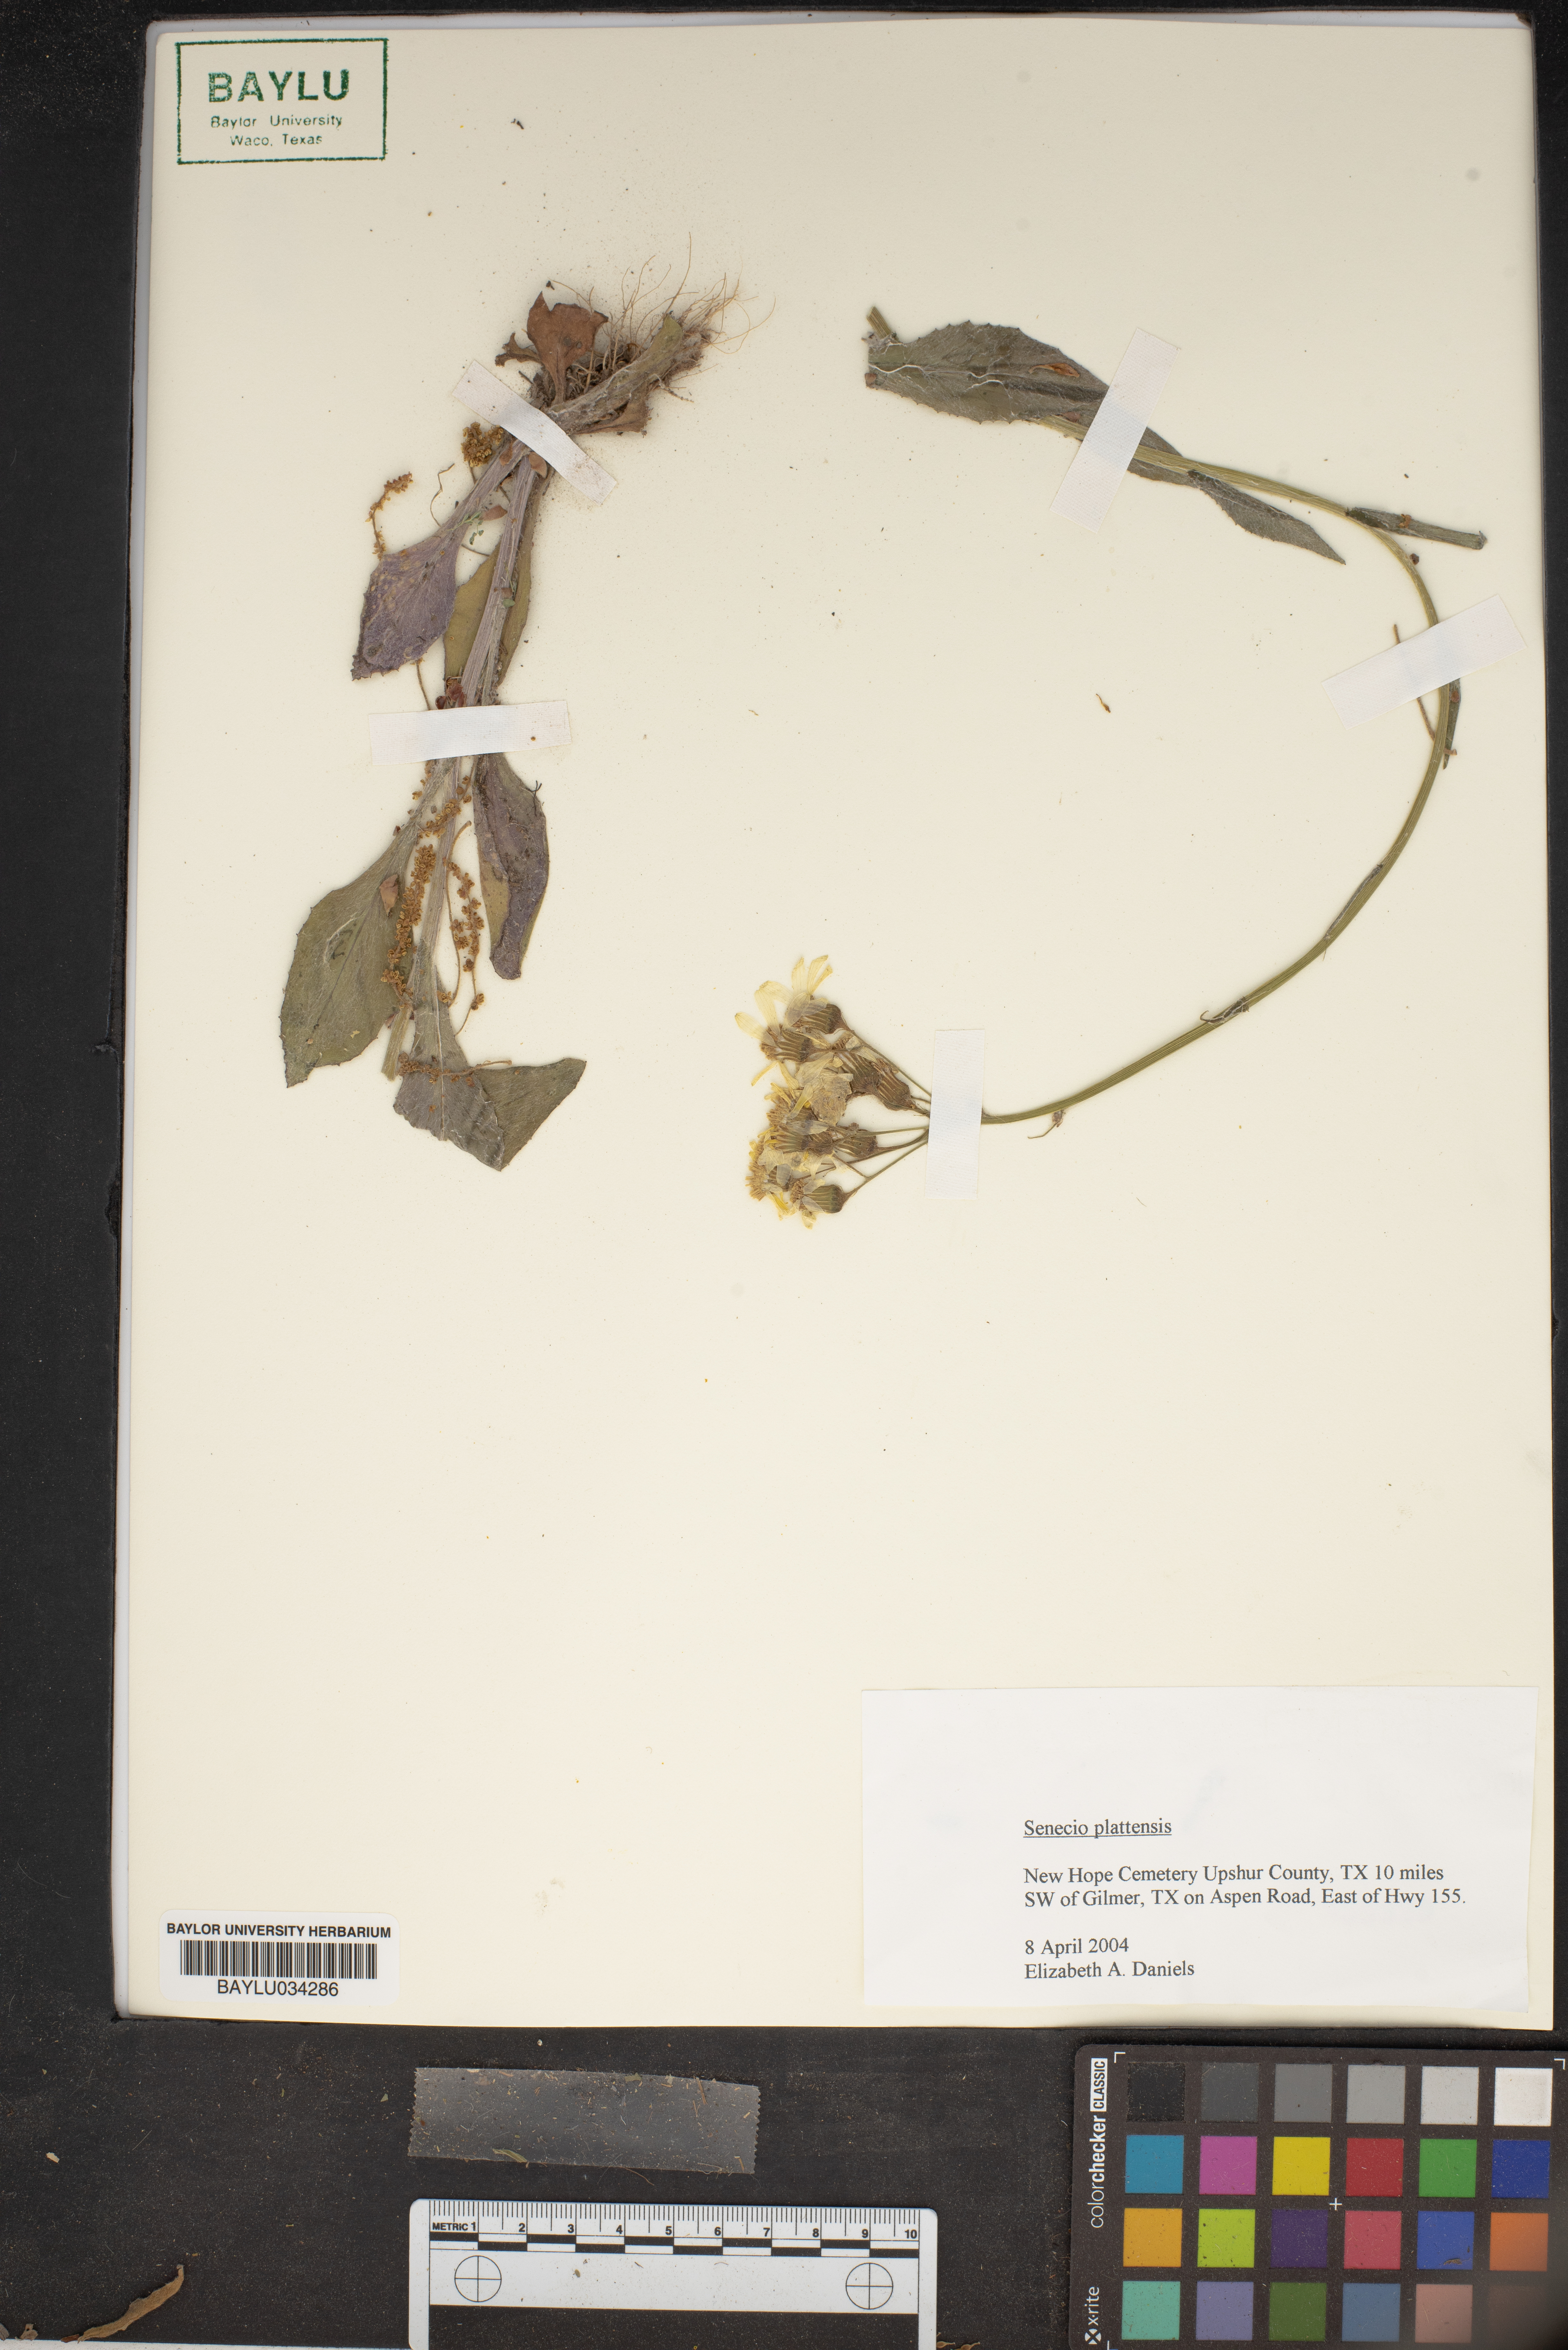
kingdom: Plantae
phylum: Tracheophyta
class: Magnoliopsida
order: Asterales
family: Asteraceae
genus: Packera
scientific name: Packera plattensis
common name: Prairie groundsel
